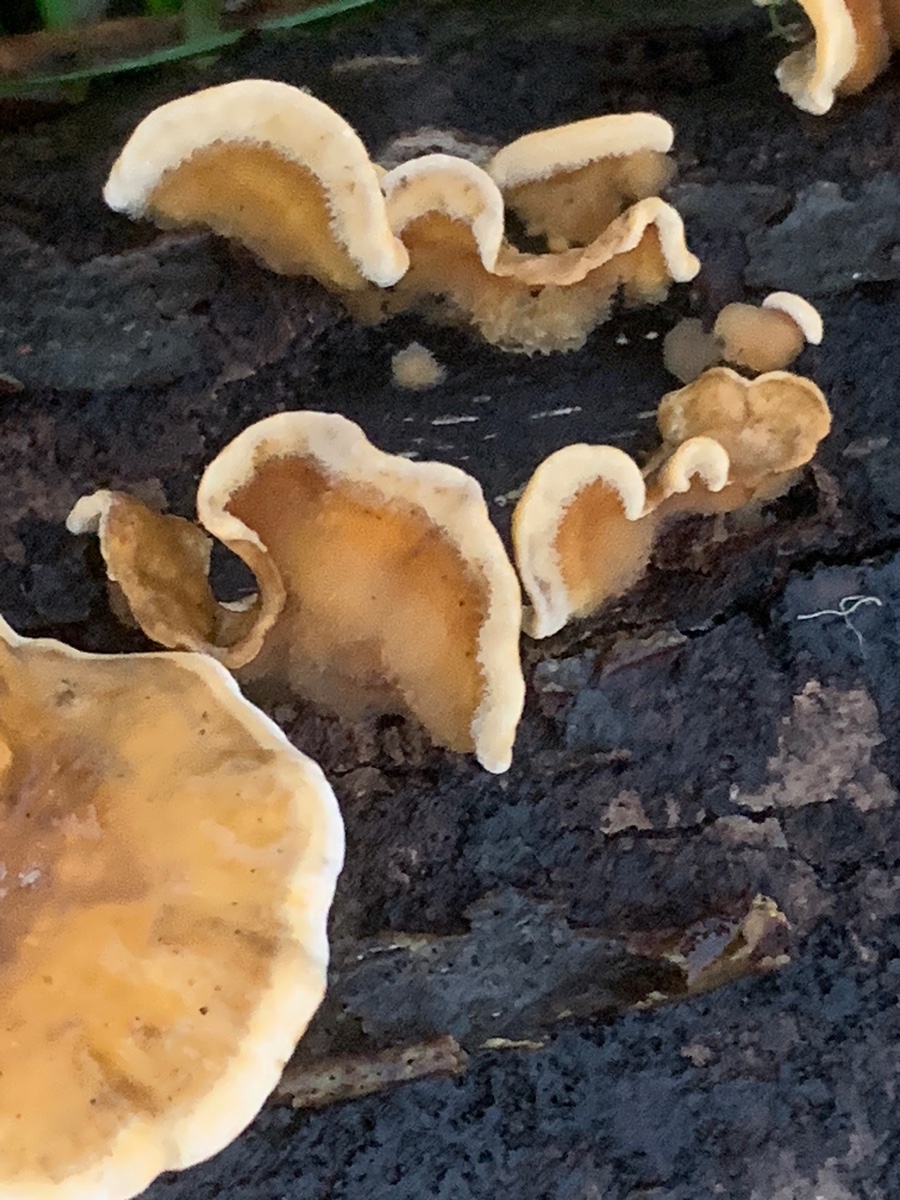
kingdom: Fungi
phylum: Basidiomycota
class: Agaricomycetes
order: Russulales
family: Stereaceae
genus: Stereum
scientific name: Stereum hirsutum
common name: håret lædersvamp
